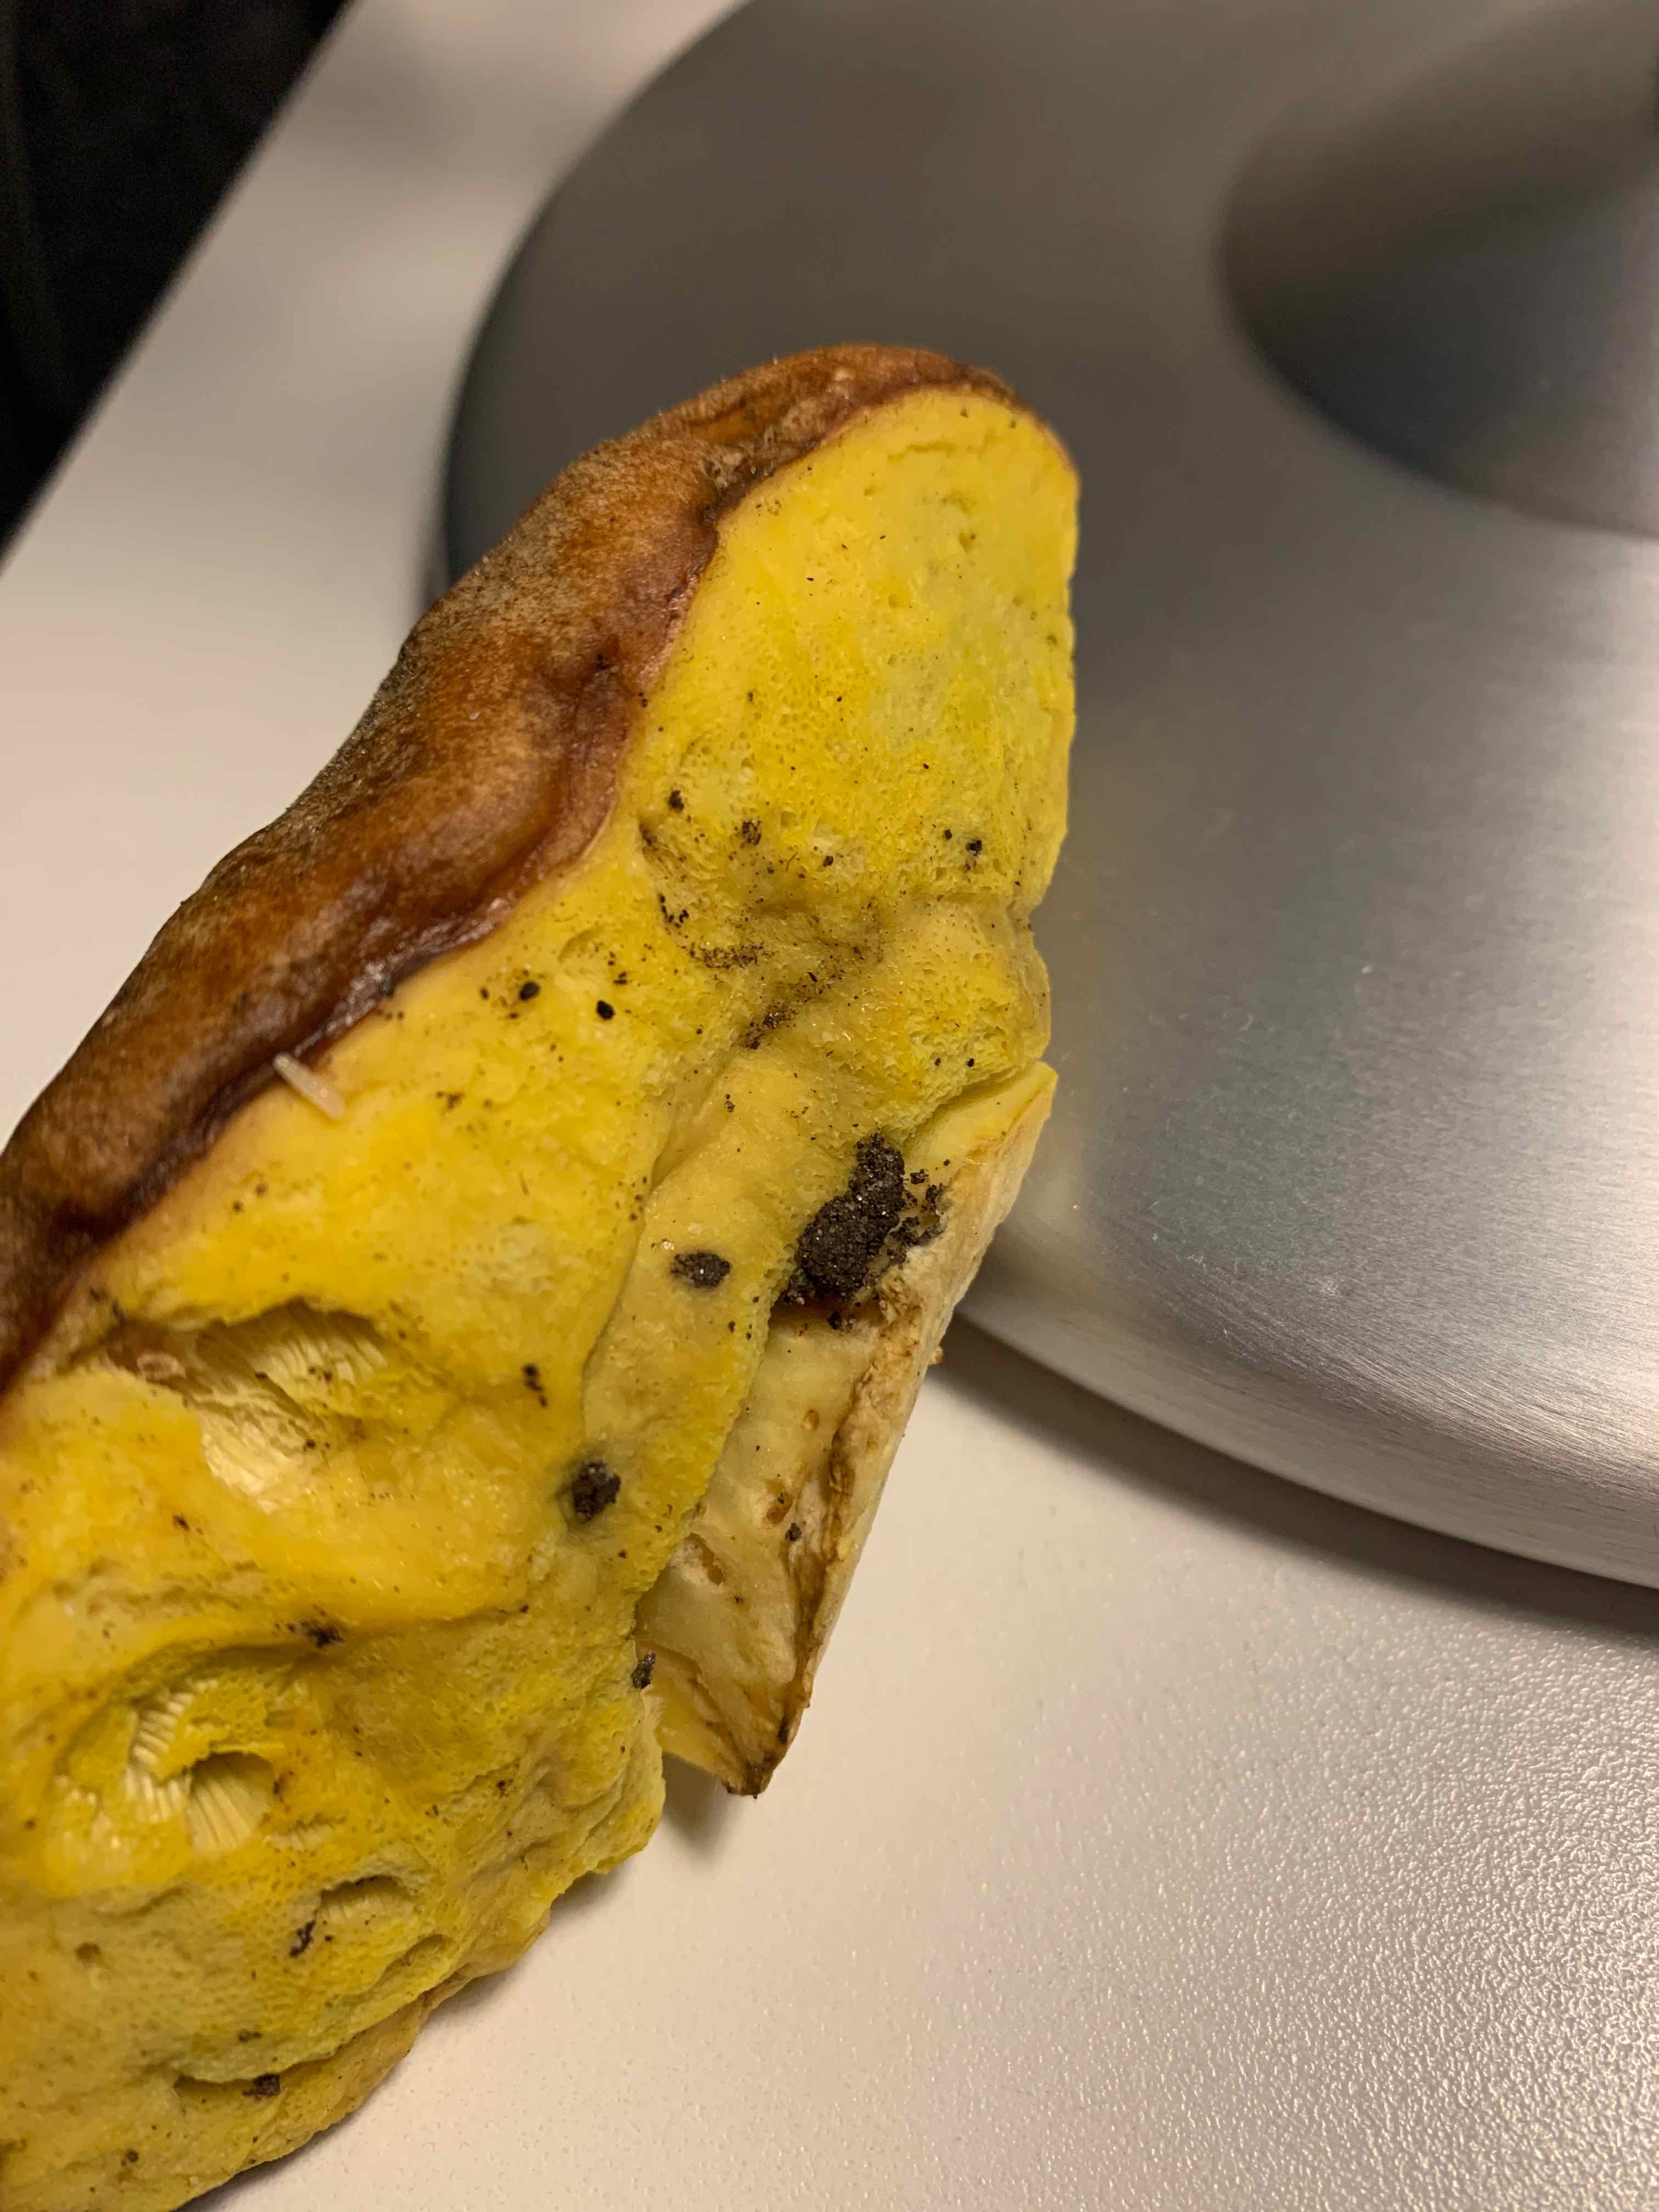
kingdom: Fungi
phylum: Basidiomycota
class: Agaricomycetes
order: Boletales
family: Boletaceae
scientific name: Boletaceae
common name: rørhatfamilien
